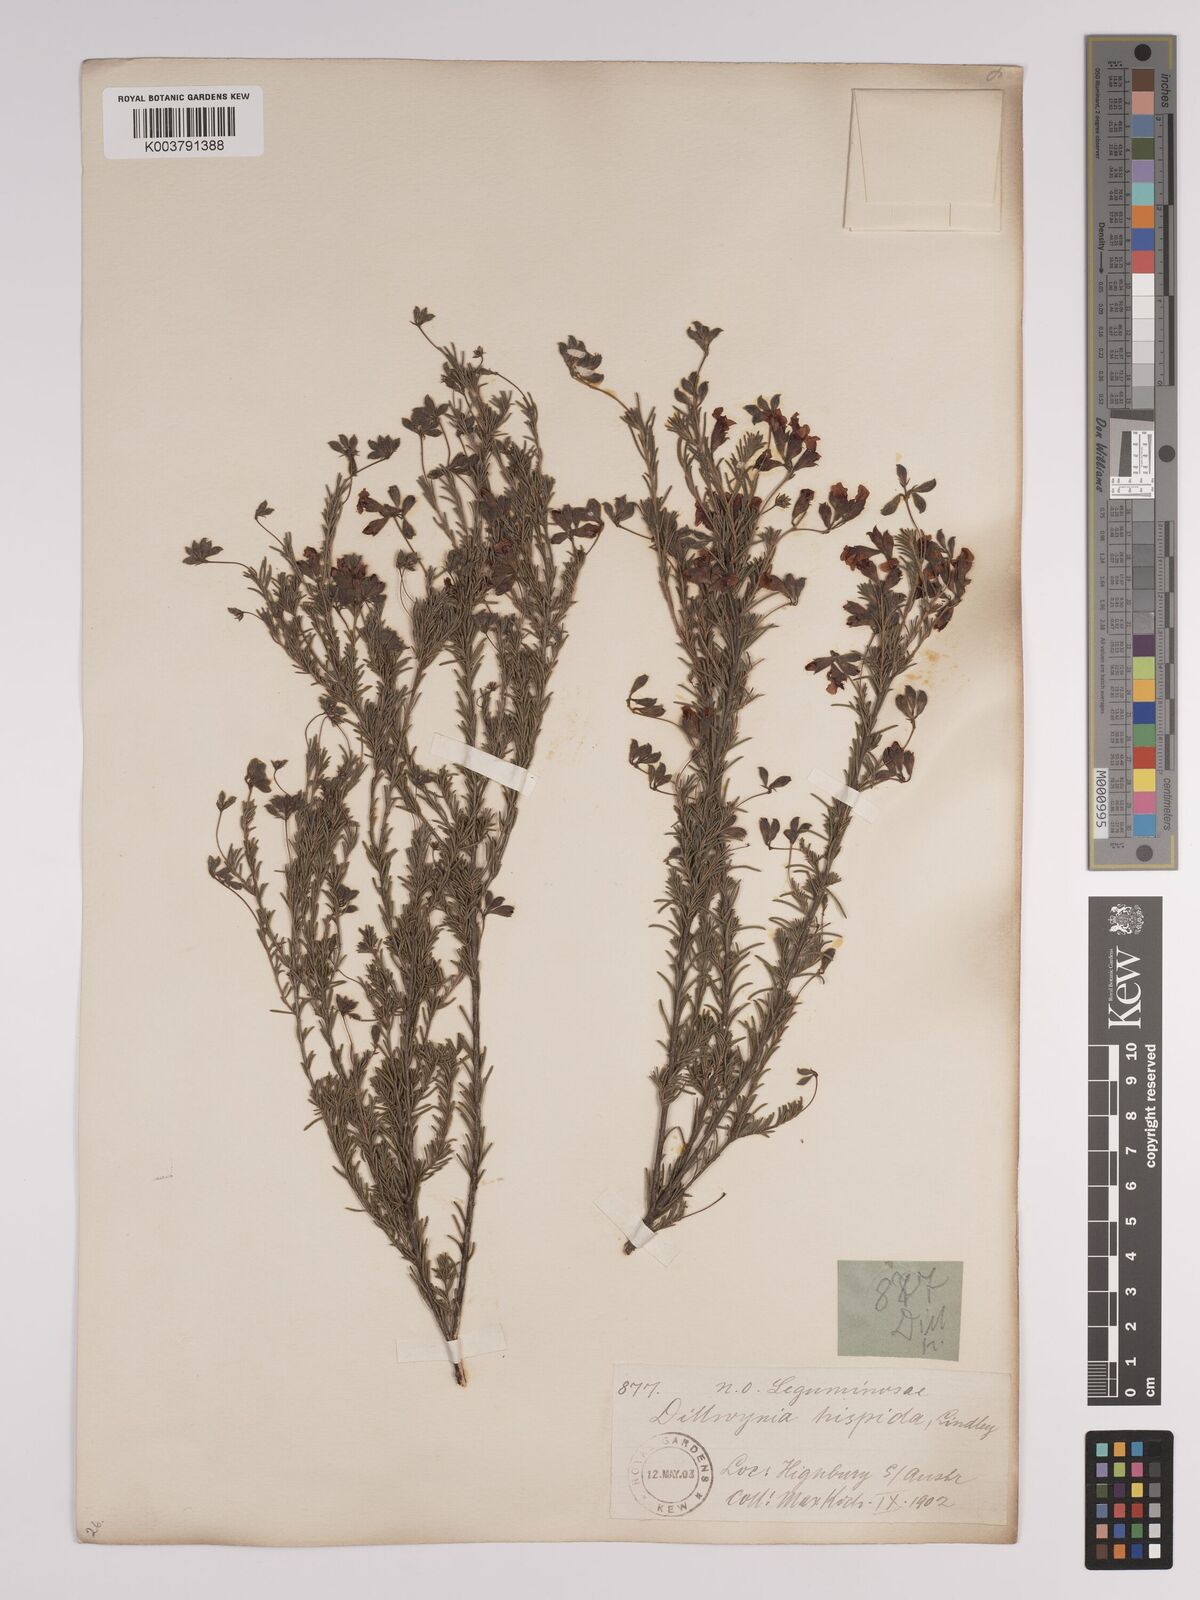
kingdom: Plantae
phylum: Tracheophyta
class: Magnoliopsida
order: Fabales
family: Fabaceae
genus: Dillwynia
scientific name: Dillwynia hispida
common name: Red parrot-pea
